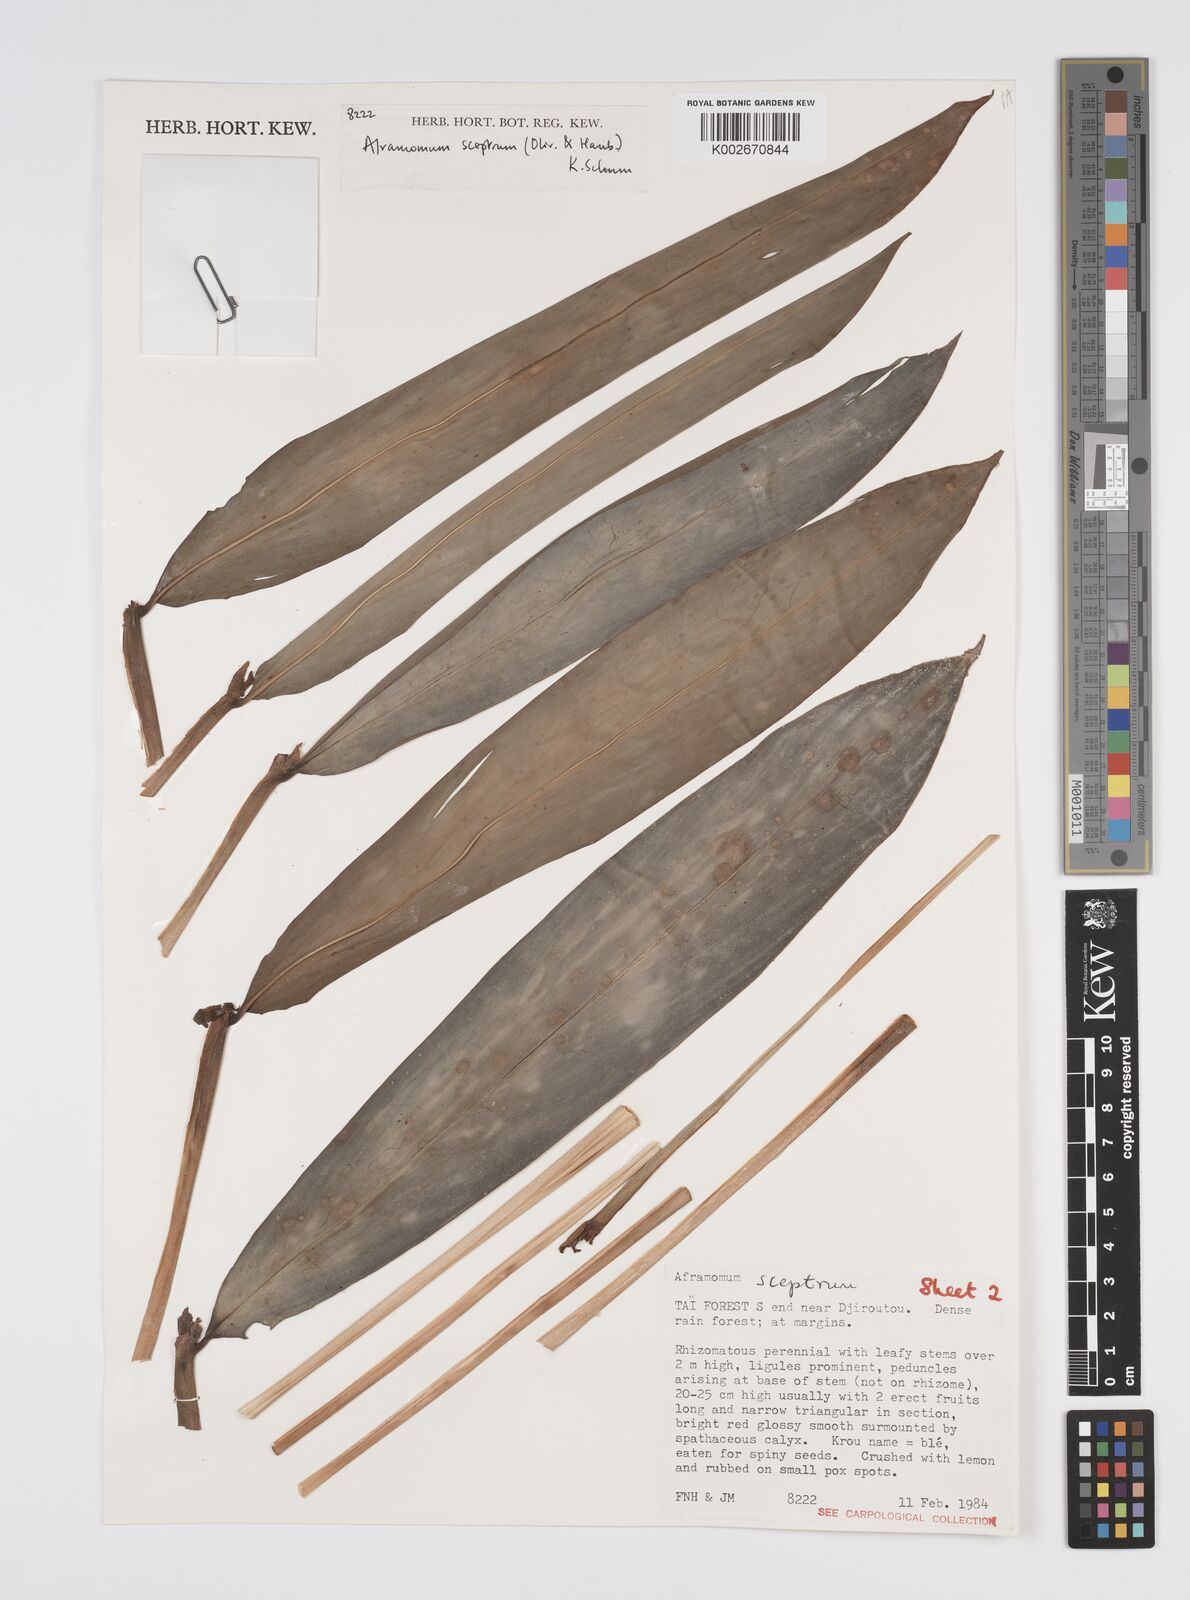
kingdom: Plantae
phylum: Tracheophyta
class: Liliopsida
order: Zingiberales
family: Zingiberaceae
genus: Aframomum
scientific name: Aframomum cereum
